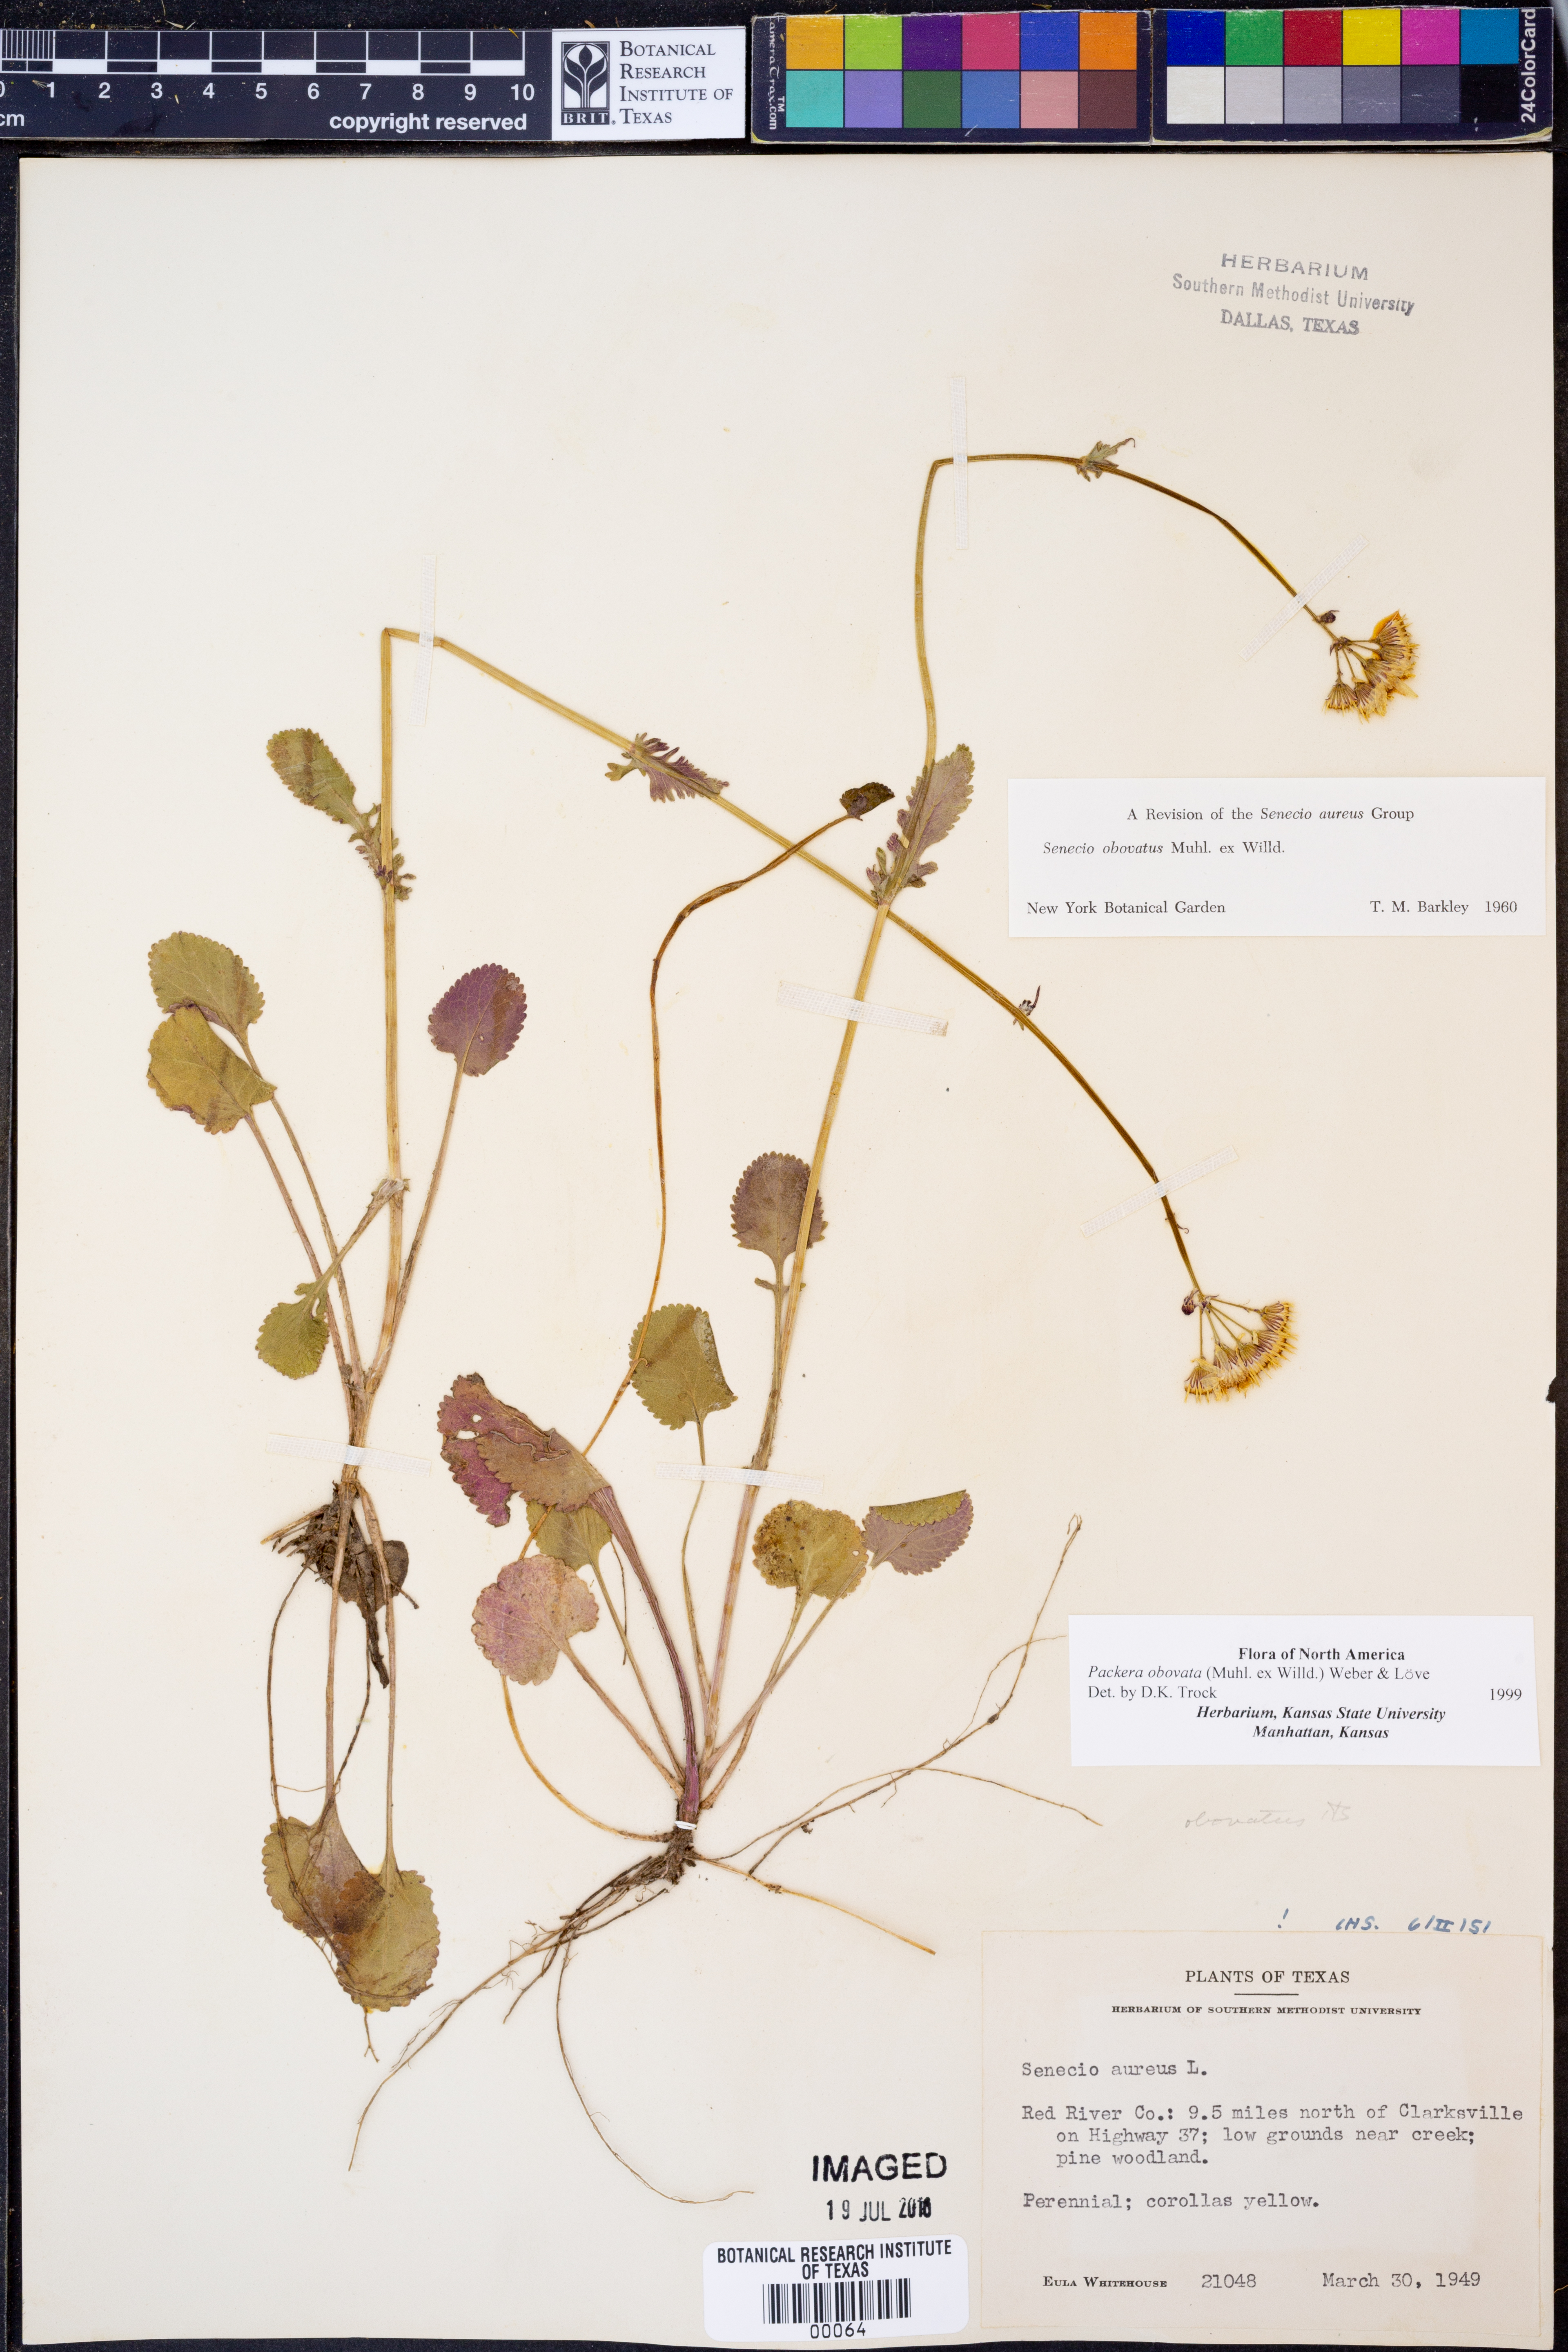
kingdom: Plantae
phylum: Tracheophyta
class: Magnoliopsida
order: Asterales
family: Asteraceae
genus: Packera
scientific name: Packera obovata
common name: Round-leaf ragwort
